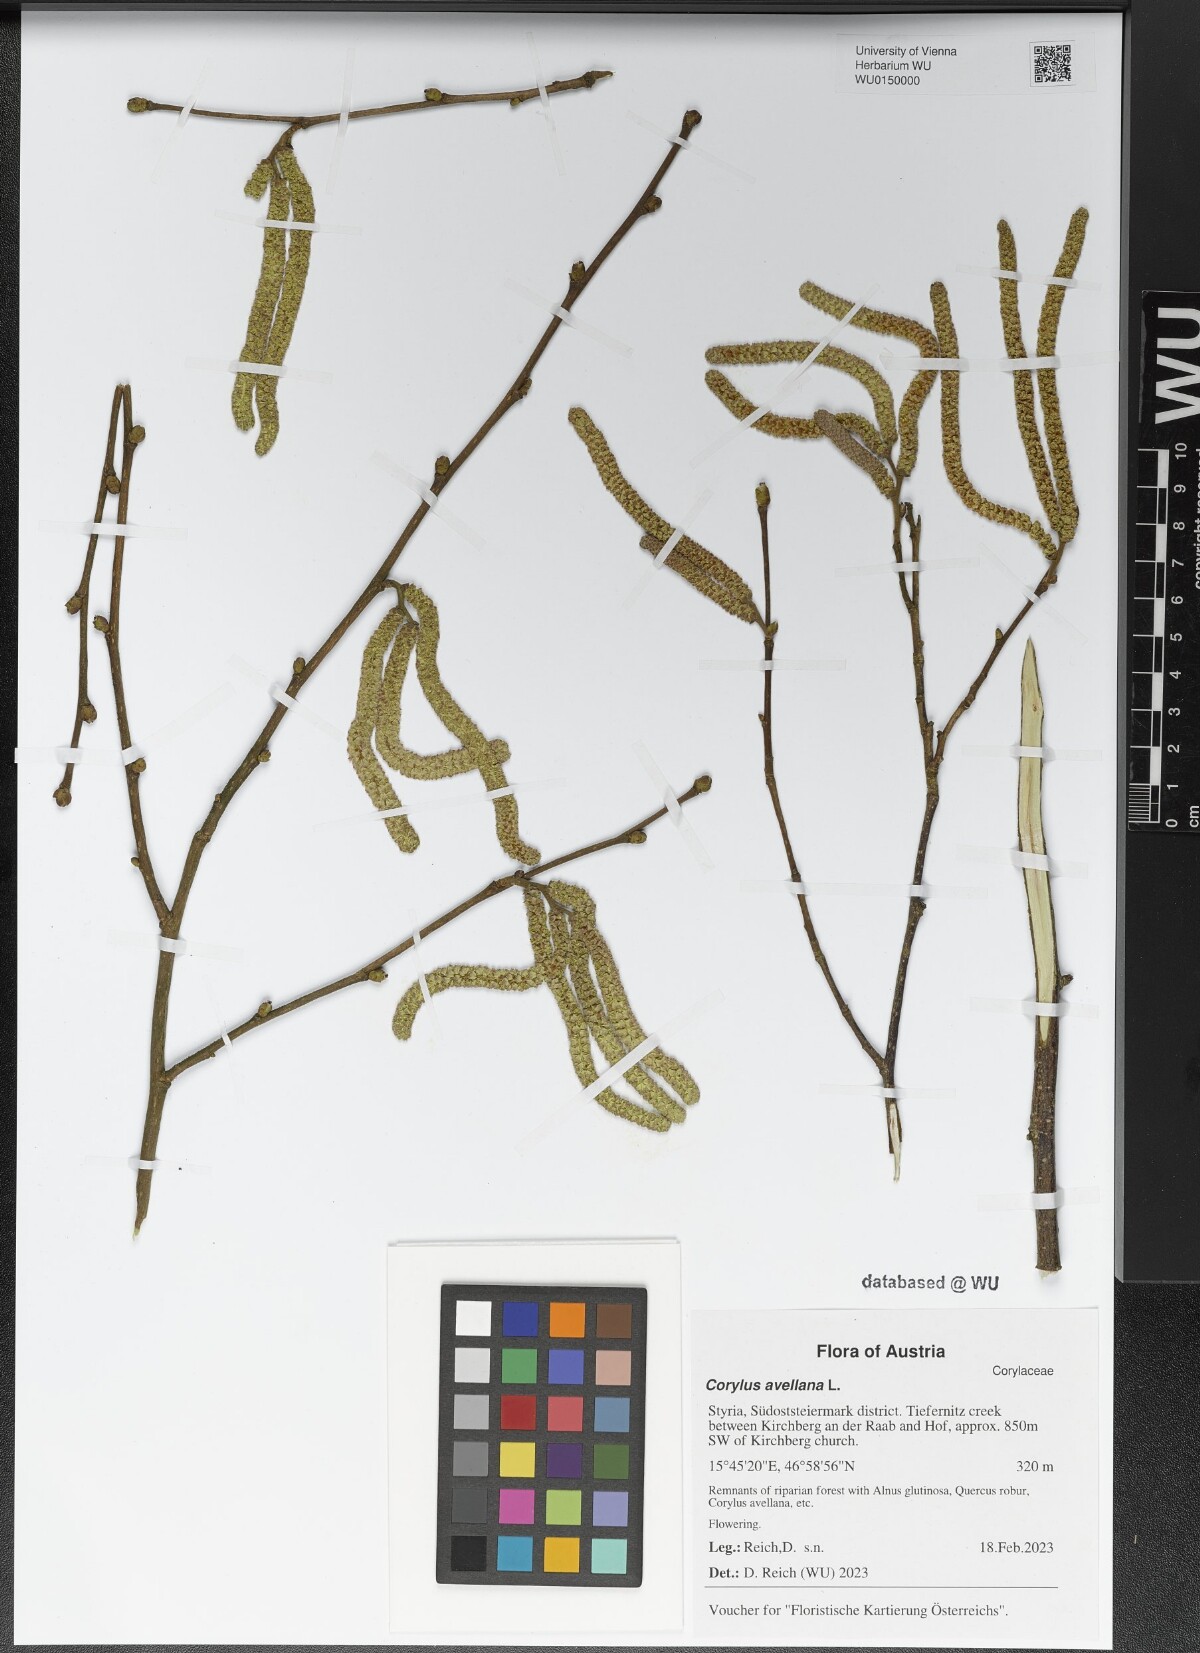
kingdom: Plantae
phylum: Tracheophyta
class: Magnoliopsida
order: Fagales
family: Betulaceae
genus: Corylus
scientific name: Corylus avellana
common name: European hazel
